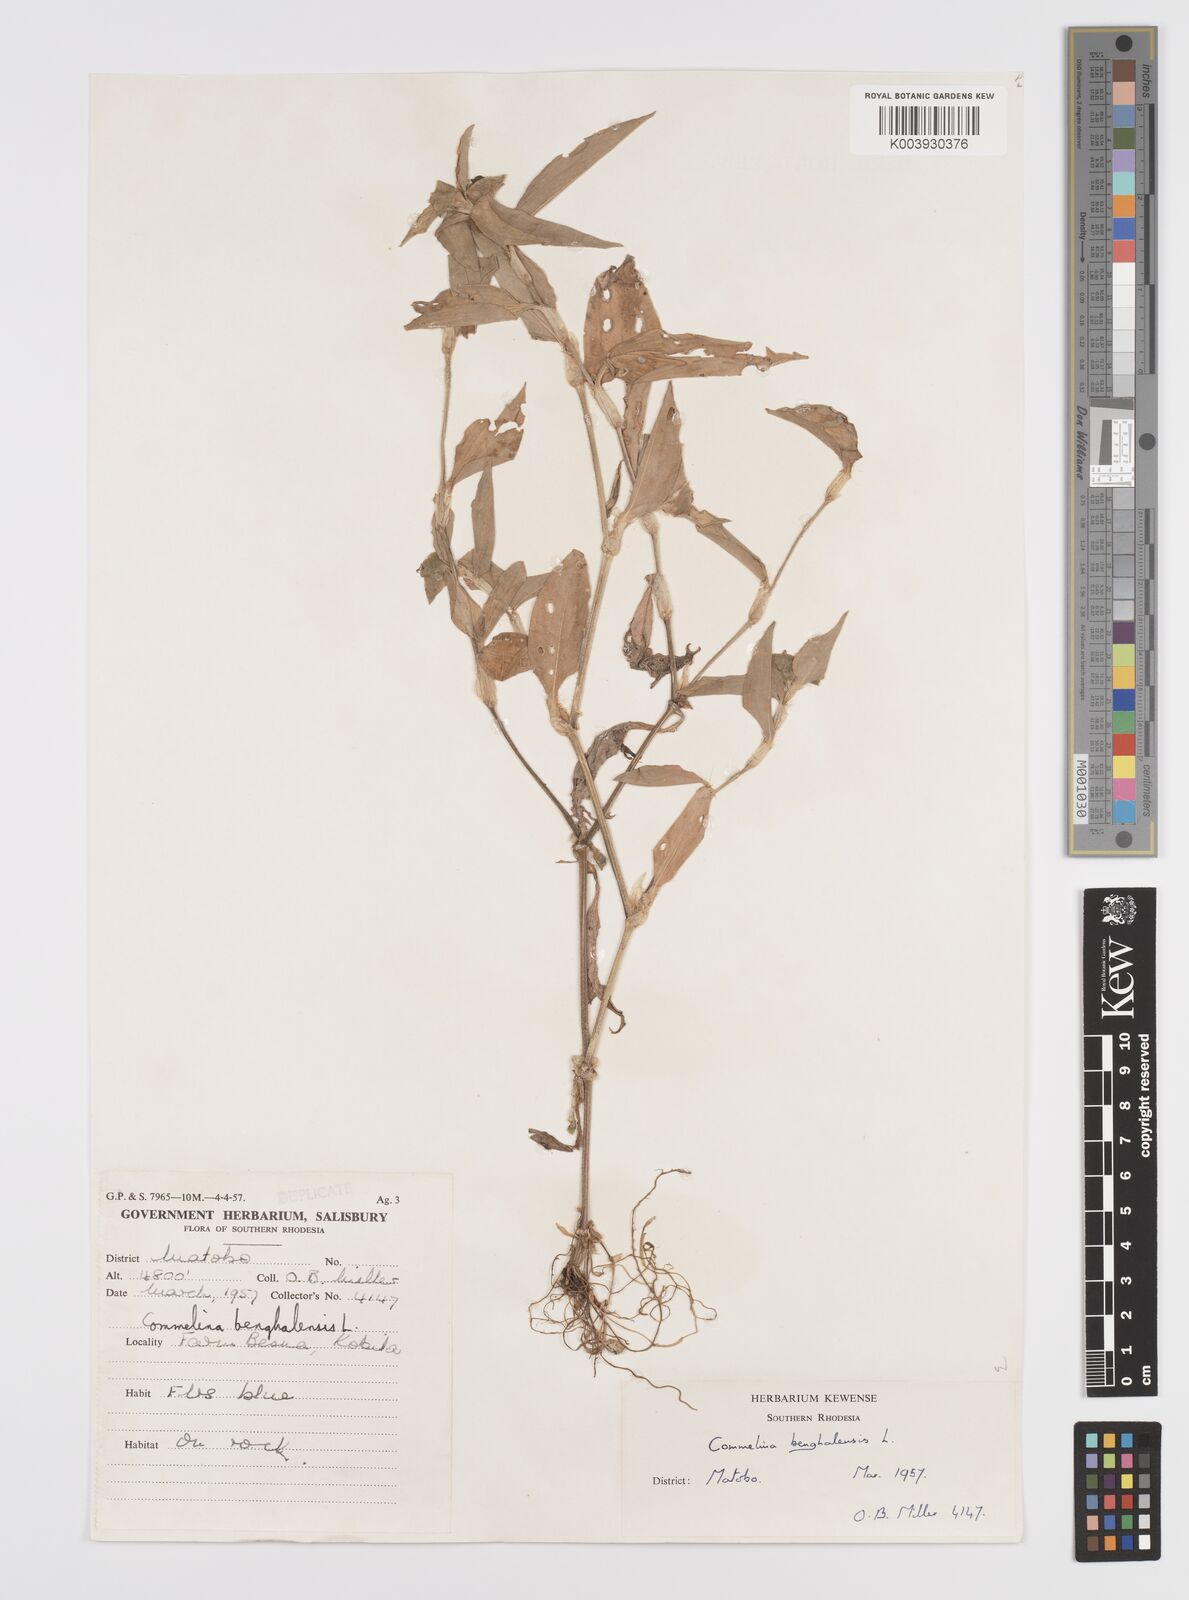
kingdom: Plantae
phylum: Tracheophyta
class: Liliopsida
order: Commelinales
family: Commelinaceae
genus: Commelina
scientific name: Commelina benghalensis
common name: Jio
